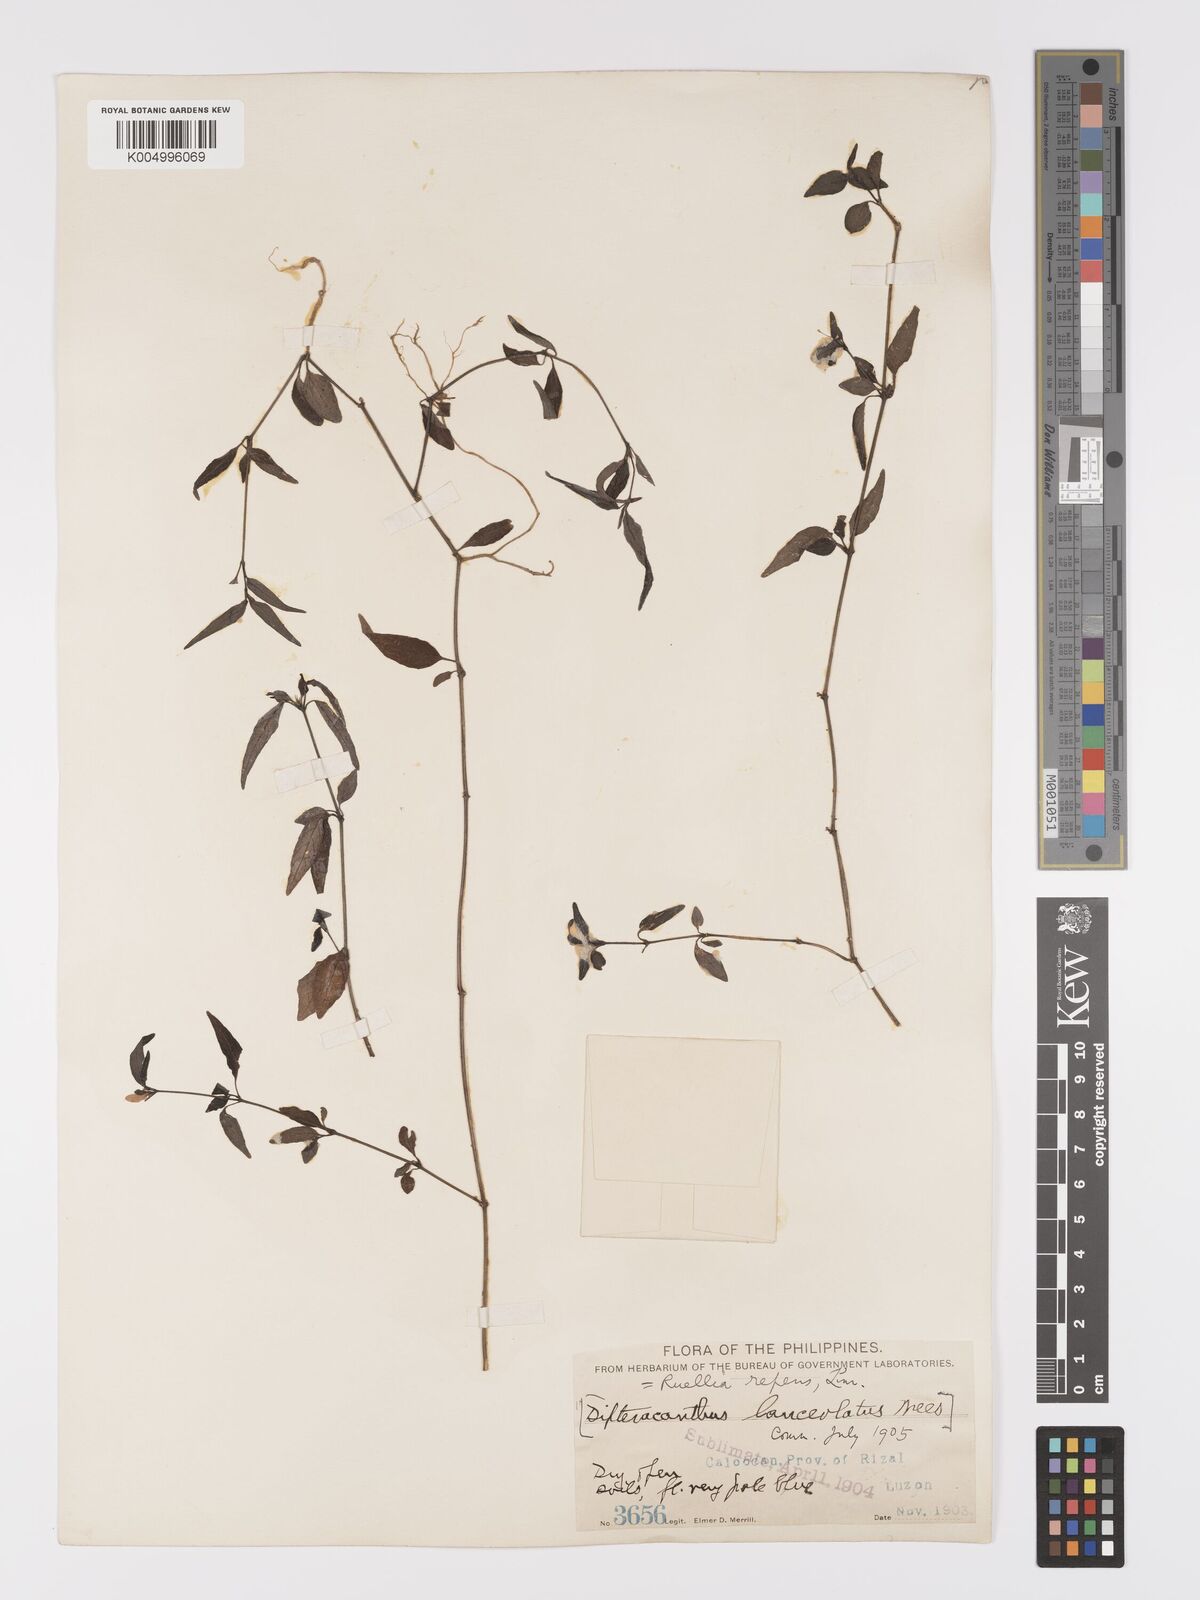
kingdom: Plantae
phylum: Tracheophyta
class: Magnoliopsida
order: Lamiales
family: Acanthaceae
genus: Ruellia
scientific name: Ruellia
